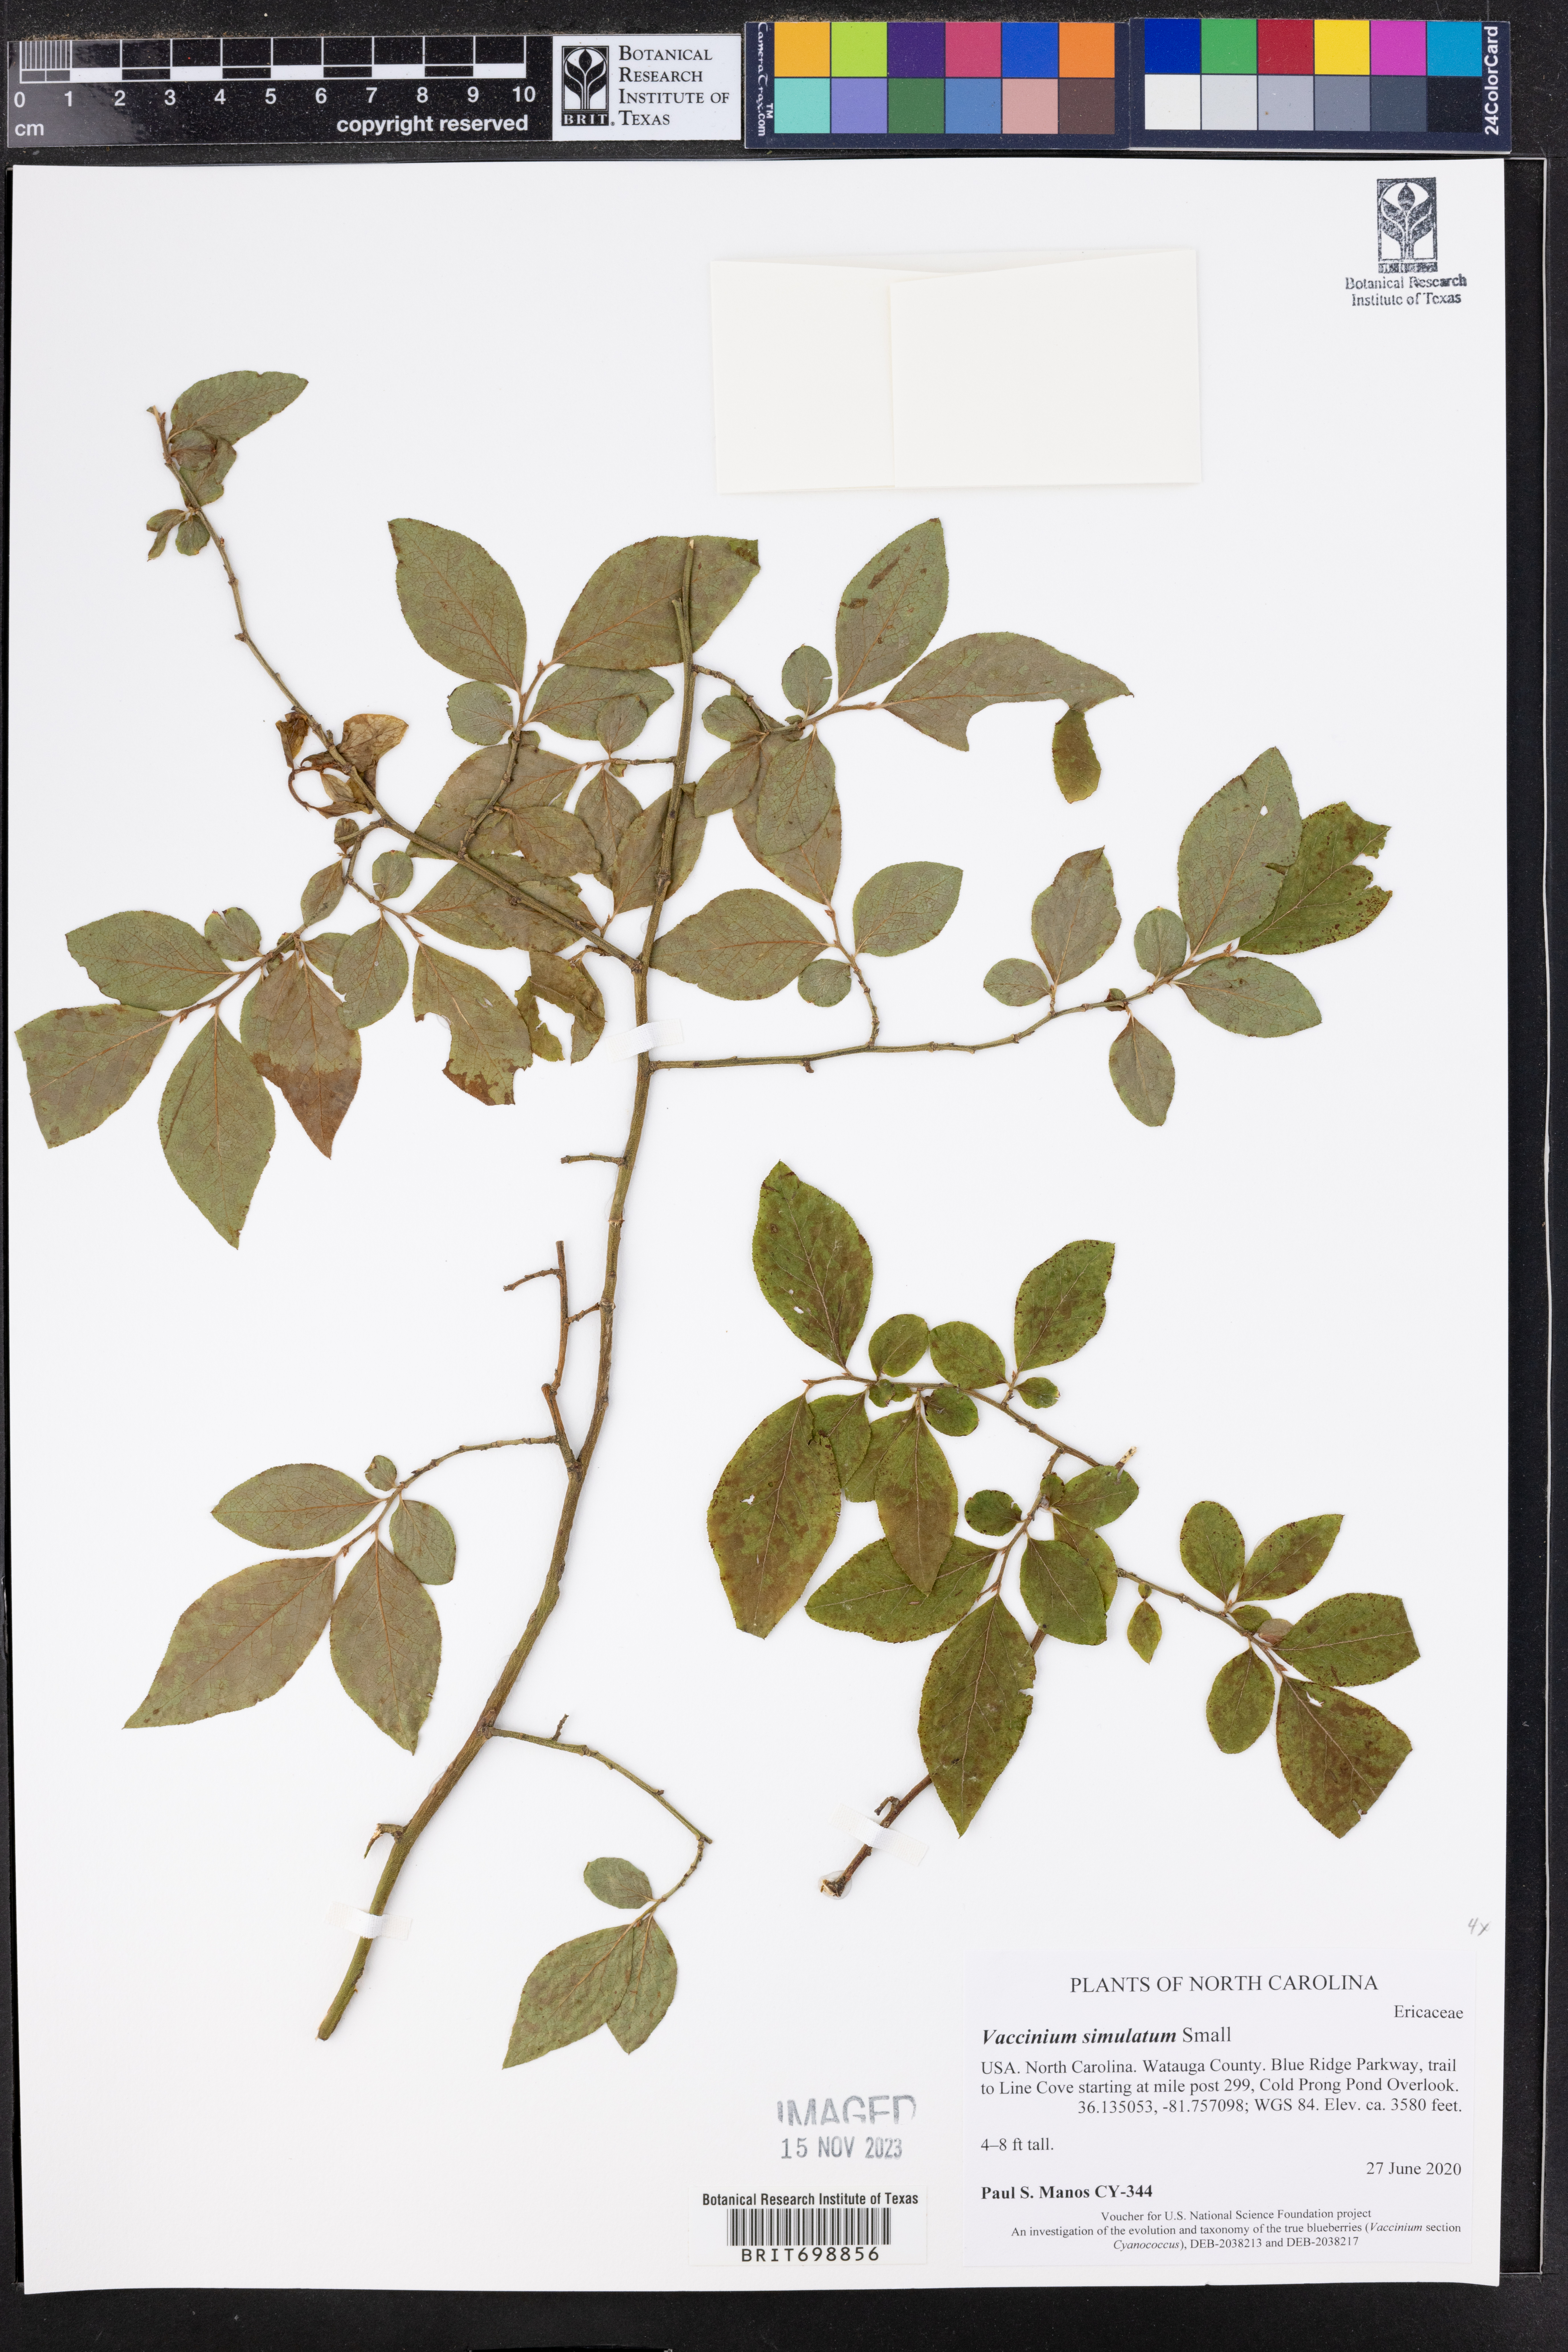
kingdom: Plantae
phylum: Tracheophyta
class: Magnoliopsida
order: Ericales
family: Ericaceae
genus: Vaccinium
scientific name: Vaccinium corymbosum
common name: Blueberry
